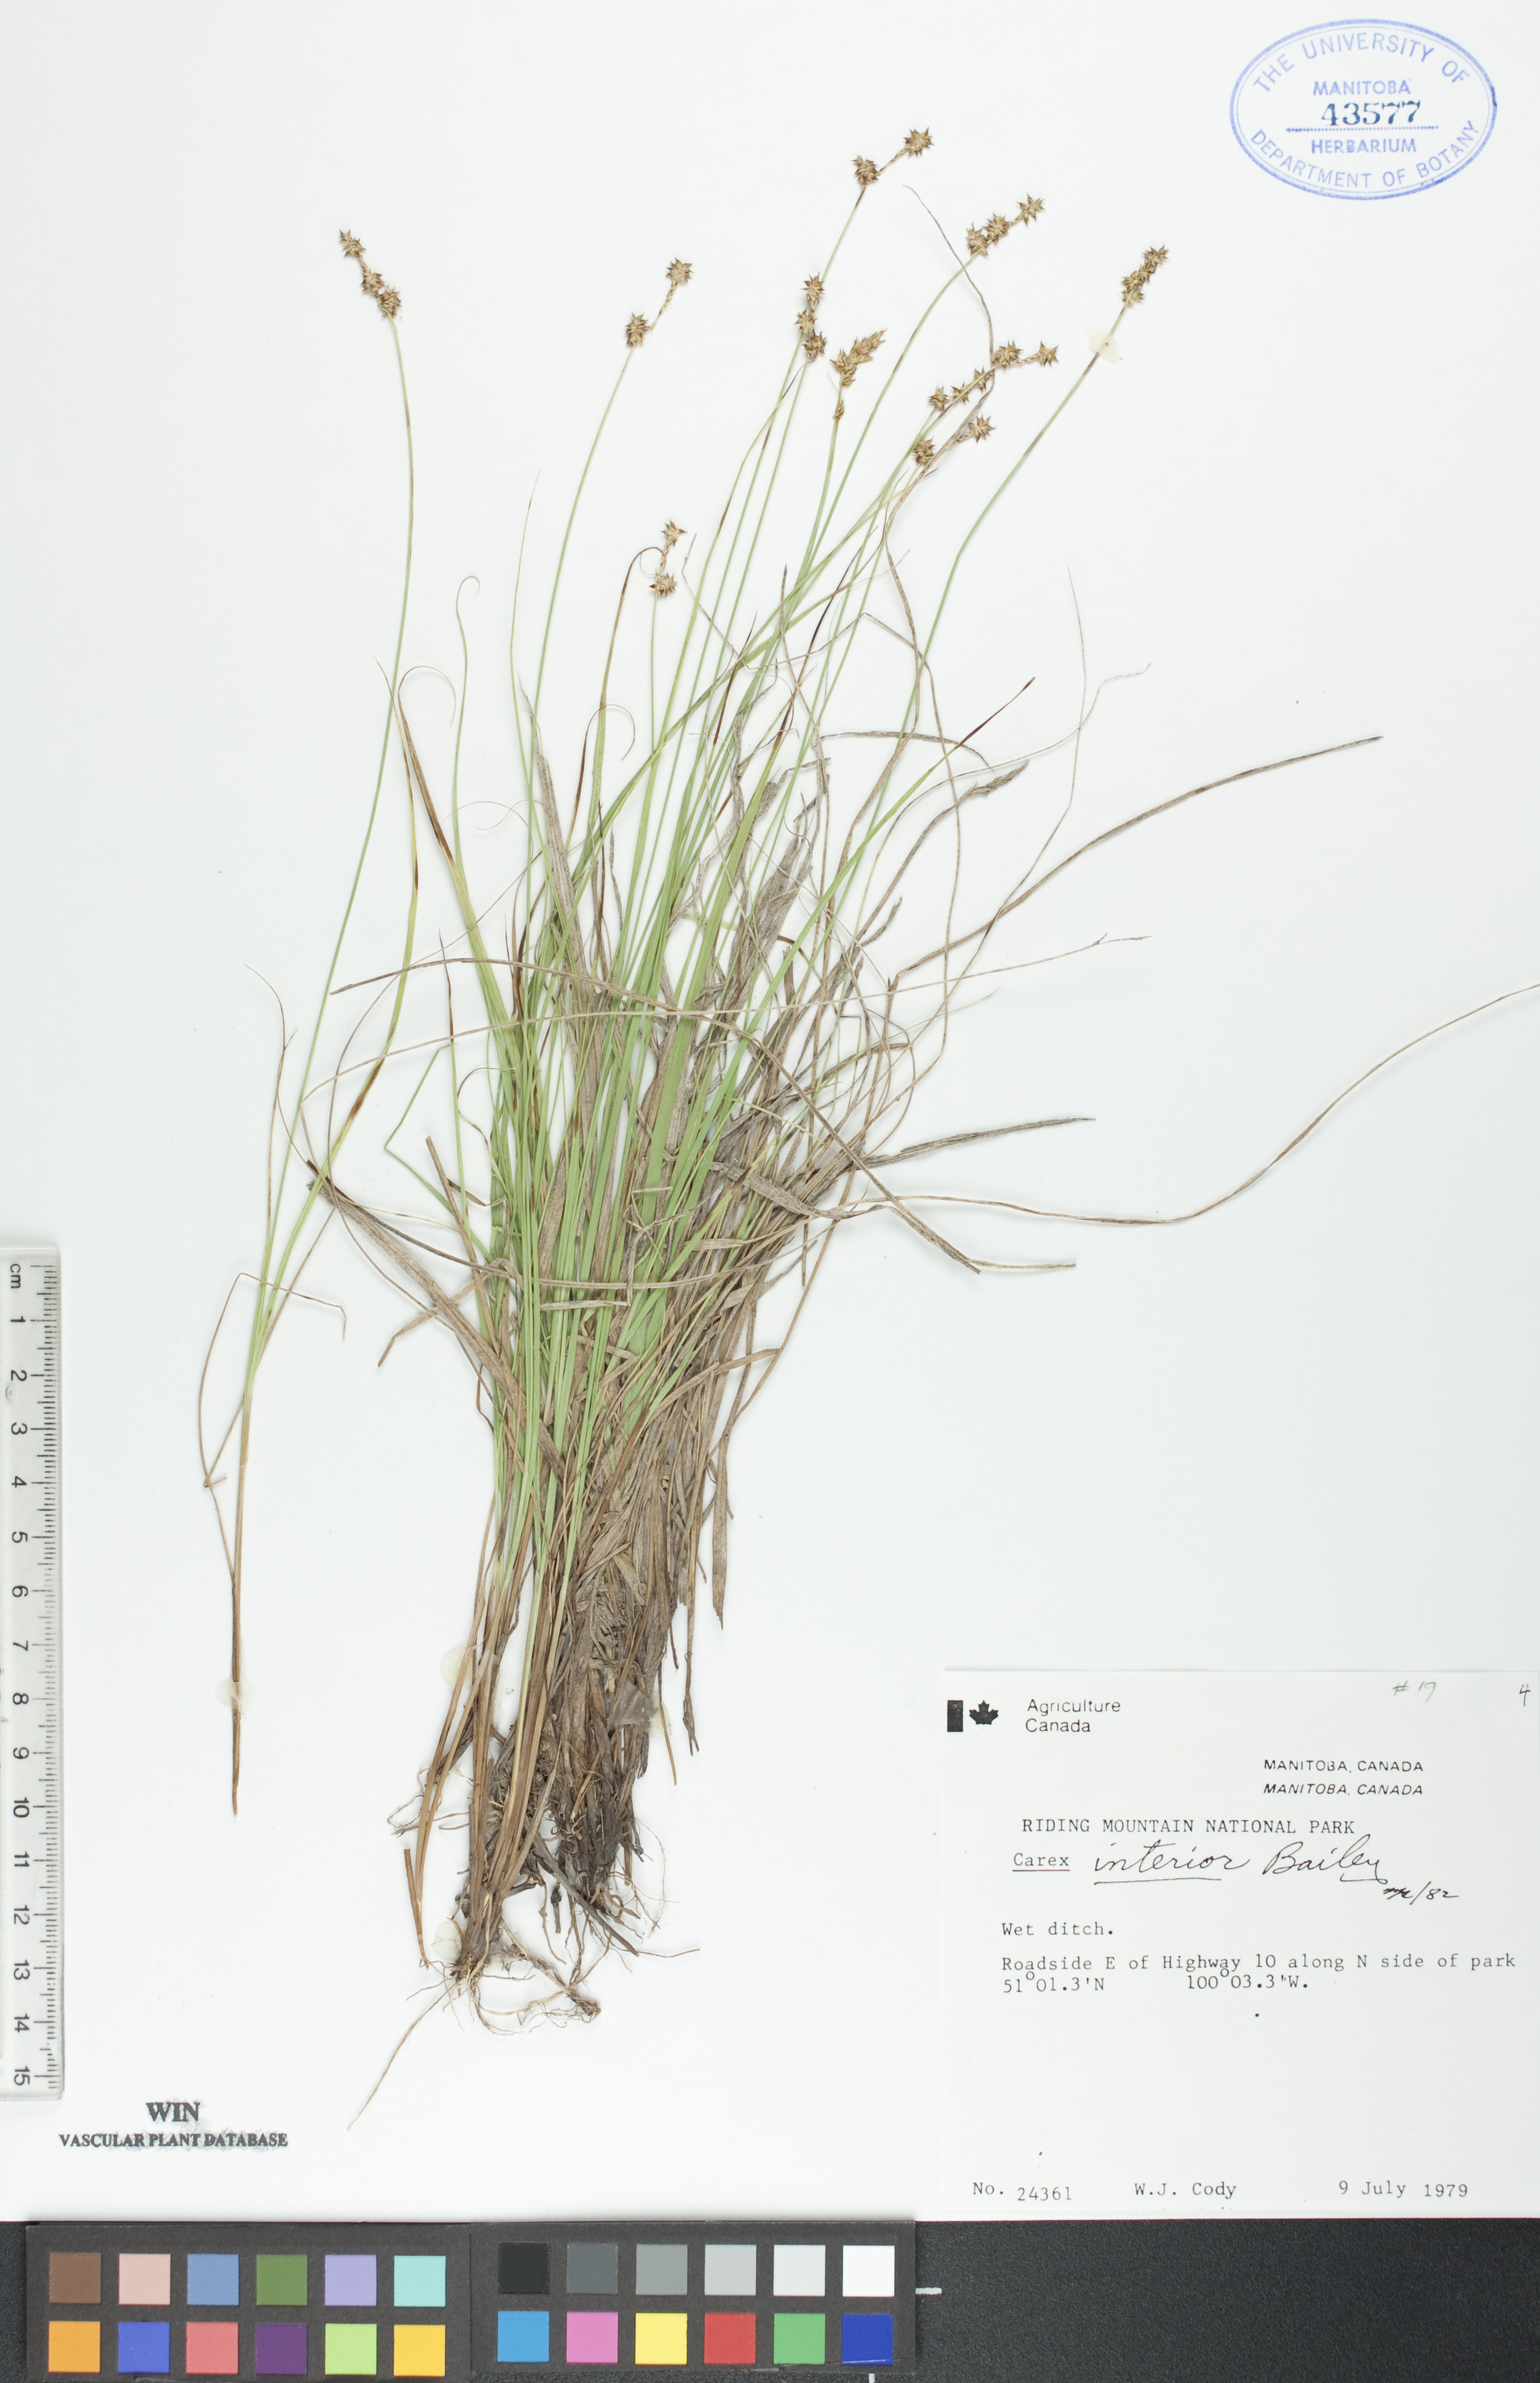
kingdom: Plantae
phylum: Tracheophyta
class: Liliopsida
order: Poales
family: Cyperaceae
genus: Carex
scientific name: Carex interior
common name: Inland sedge
